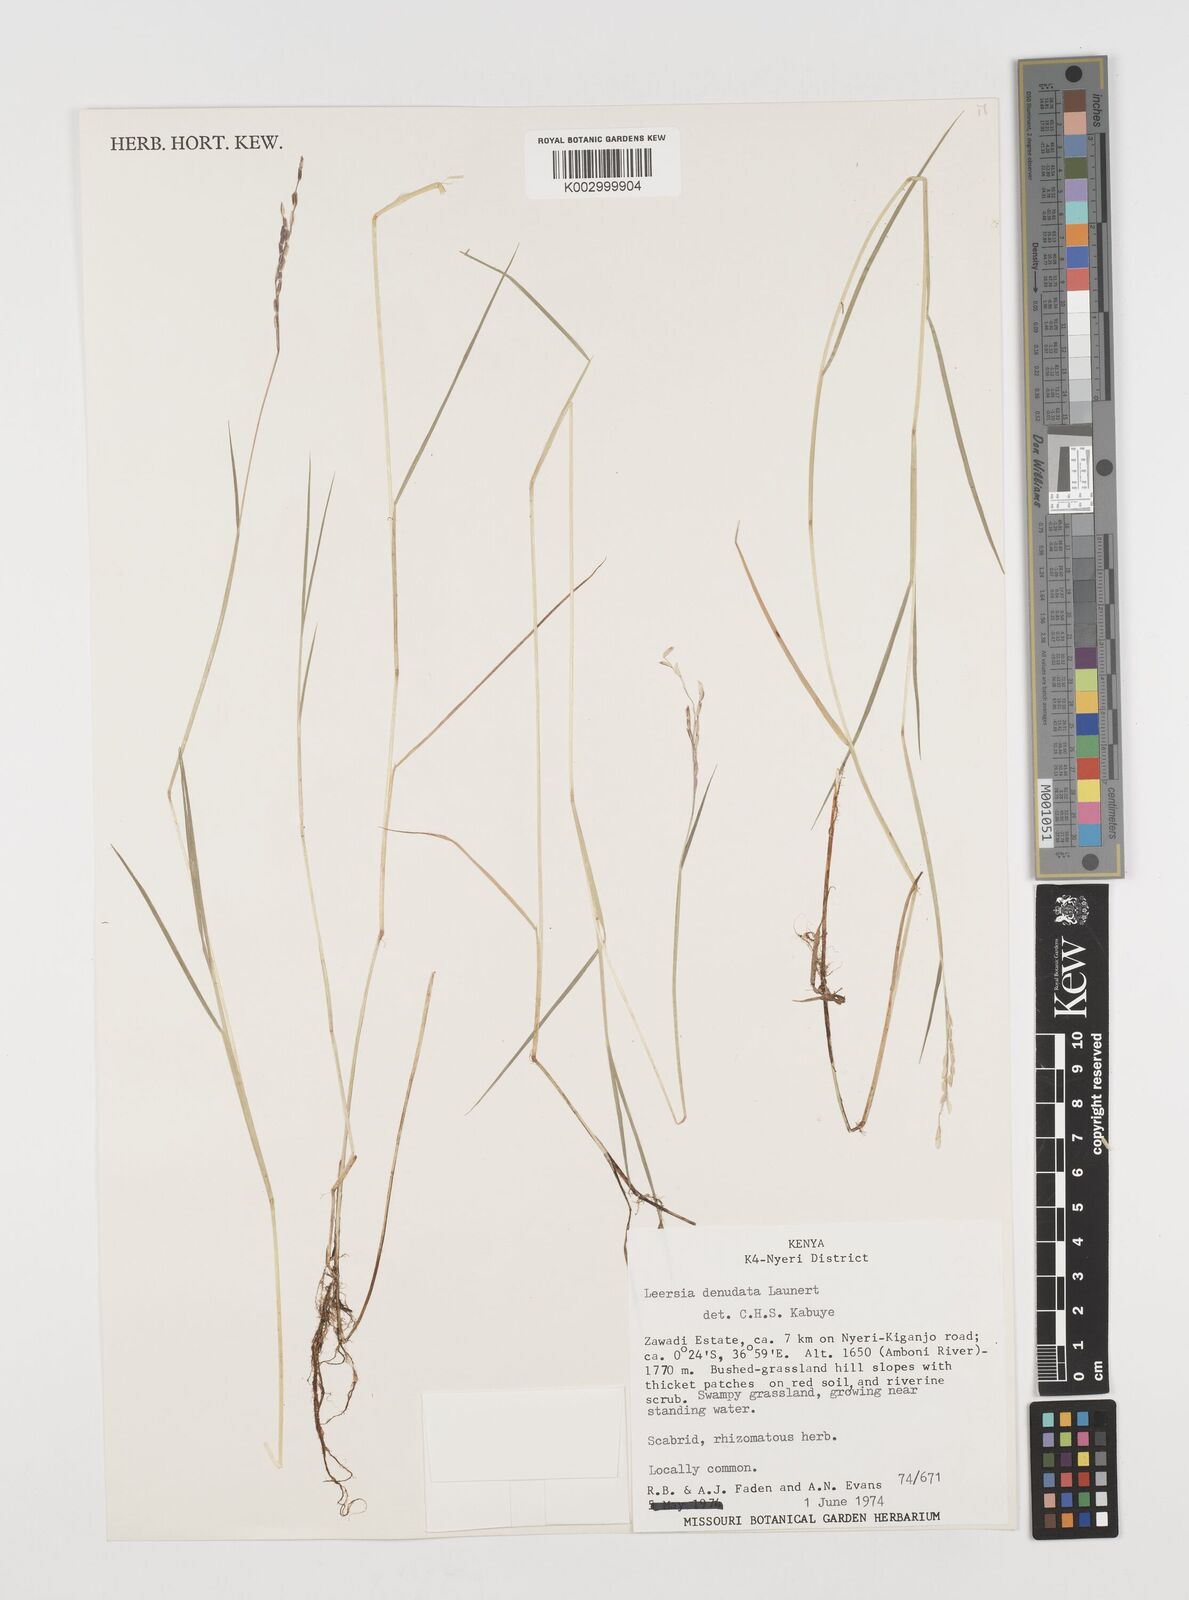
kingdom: Plantae
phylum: Tracheophyta
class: Liliopsida
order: Poales
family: Poaceae
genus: Leersia
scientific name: Leersia denudata
